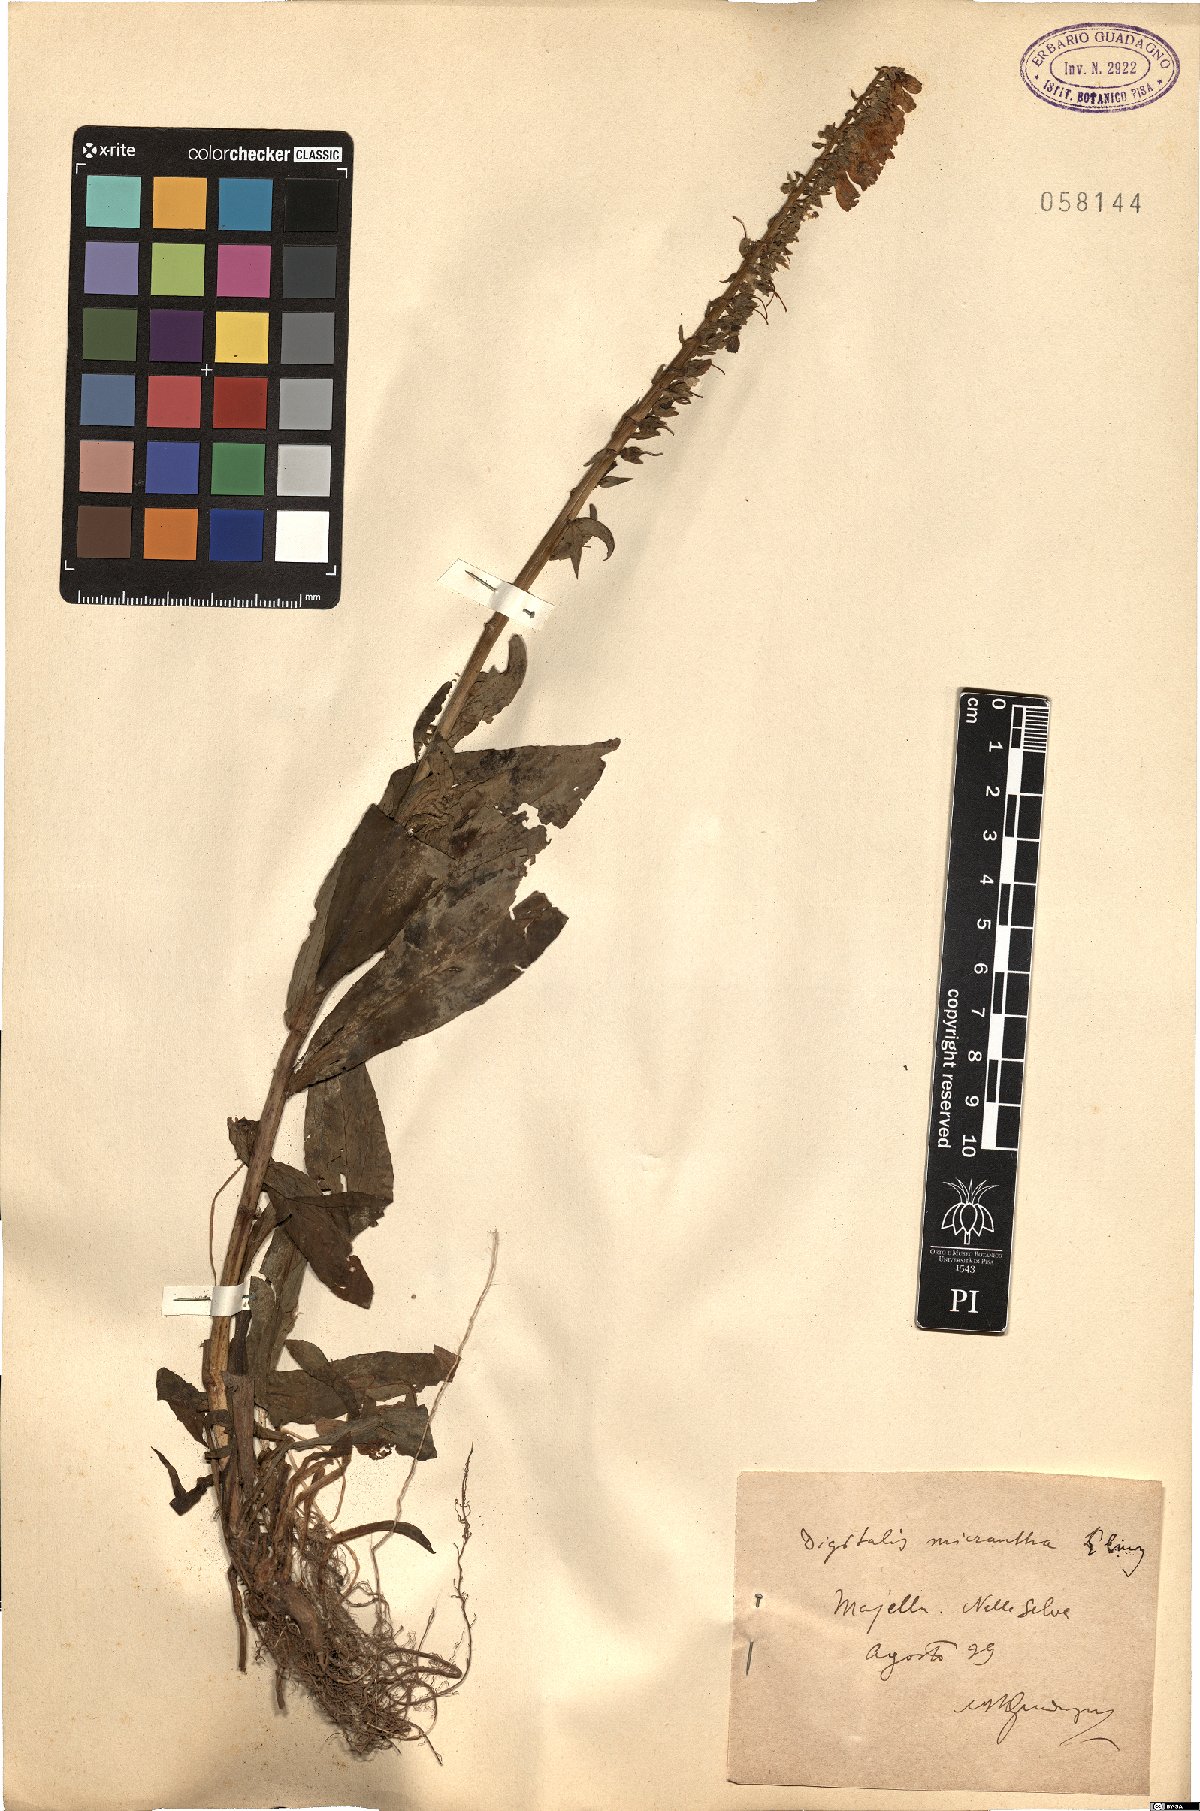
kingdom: Plantae
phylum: Tracheophyta
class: Magnoliopsida
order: Lamiales
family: Plantaginaceae
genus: Digitalis
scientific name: Digitalis lutea
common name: Straw foxglove
